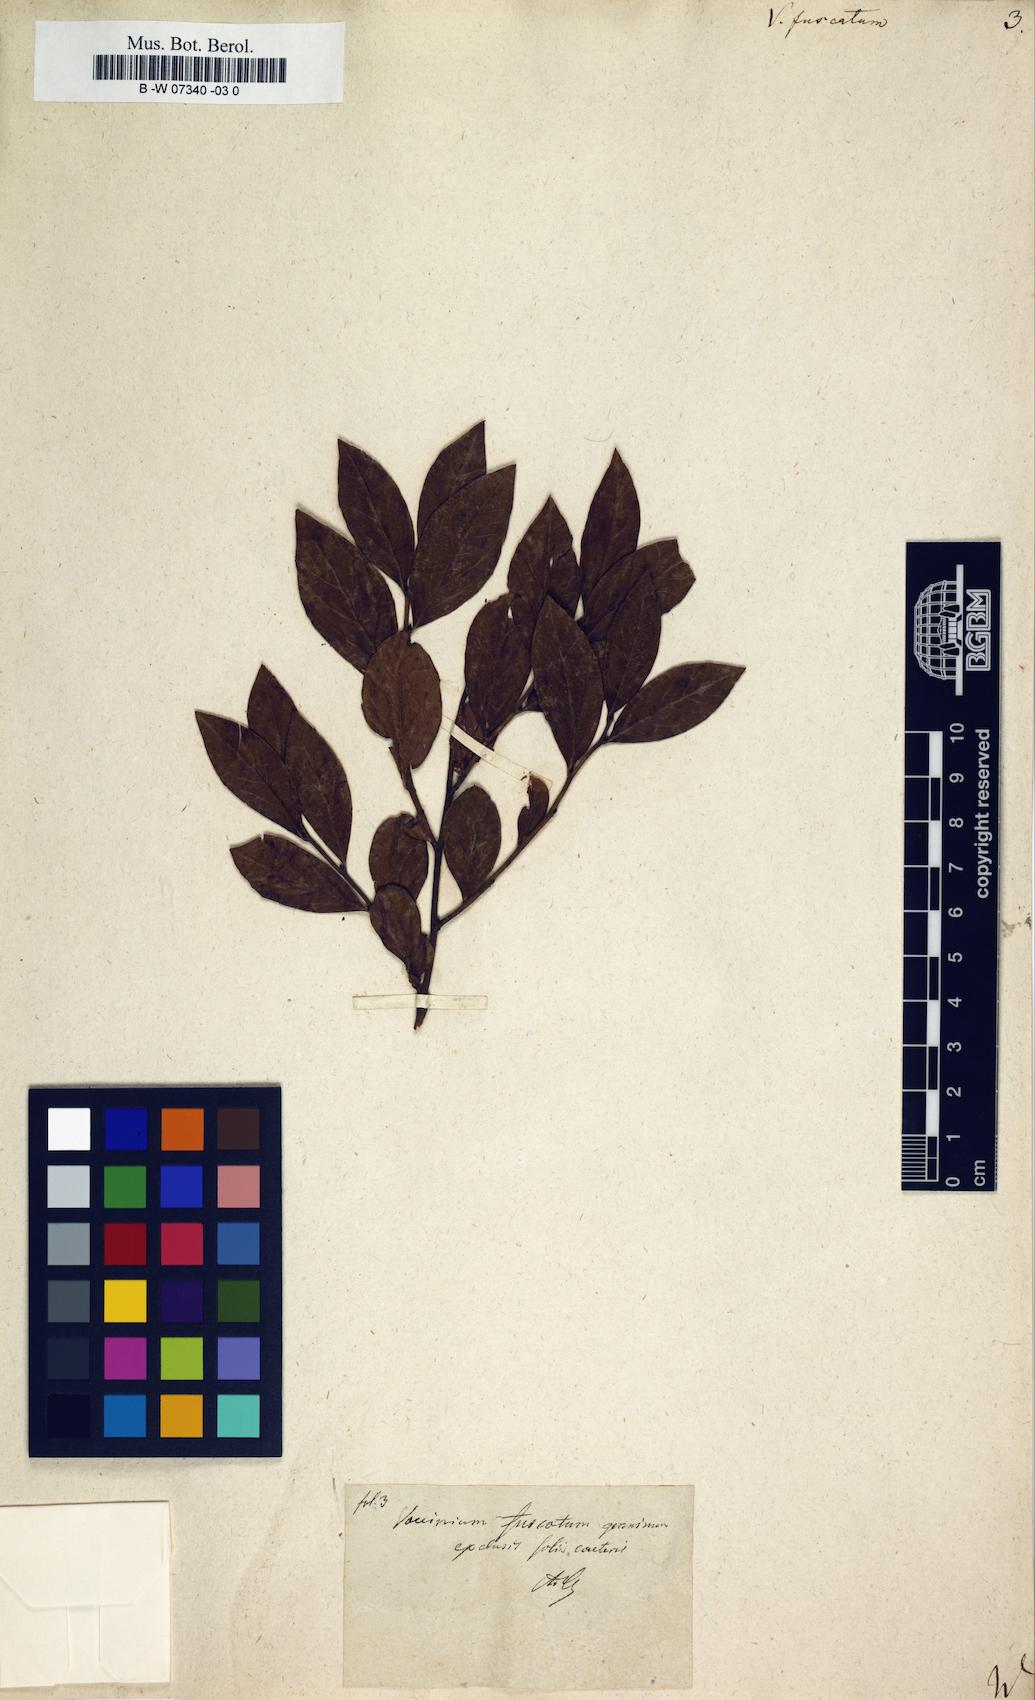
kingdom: Plantae
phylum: Tracheophyta
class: Magnoliopsida
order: Ericales
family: Ericaceae
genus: Vaccinium
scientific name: Vaccinium corymbosum
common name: Blueberry
